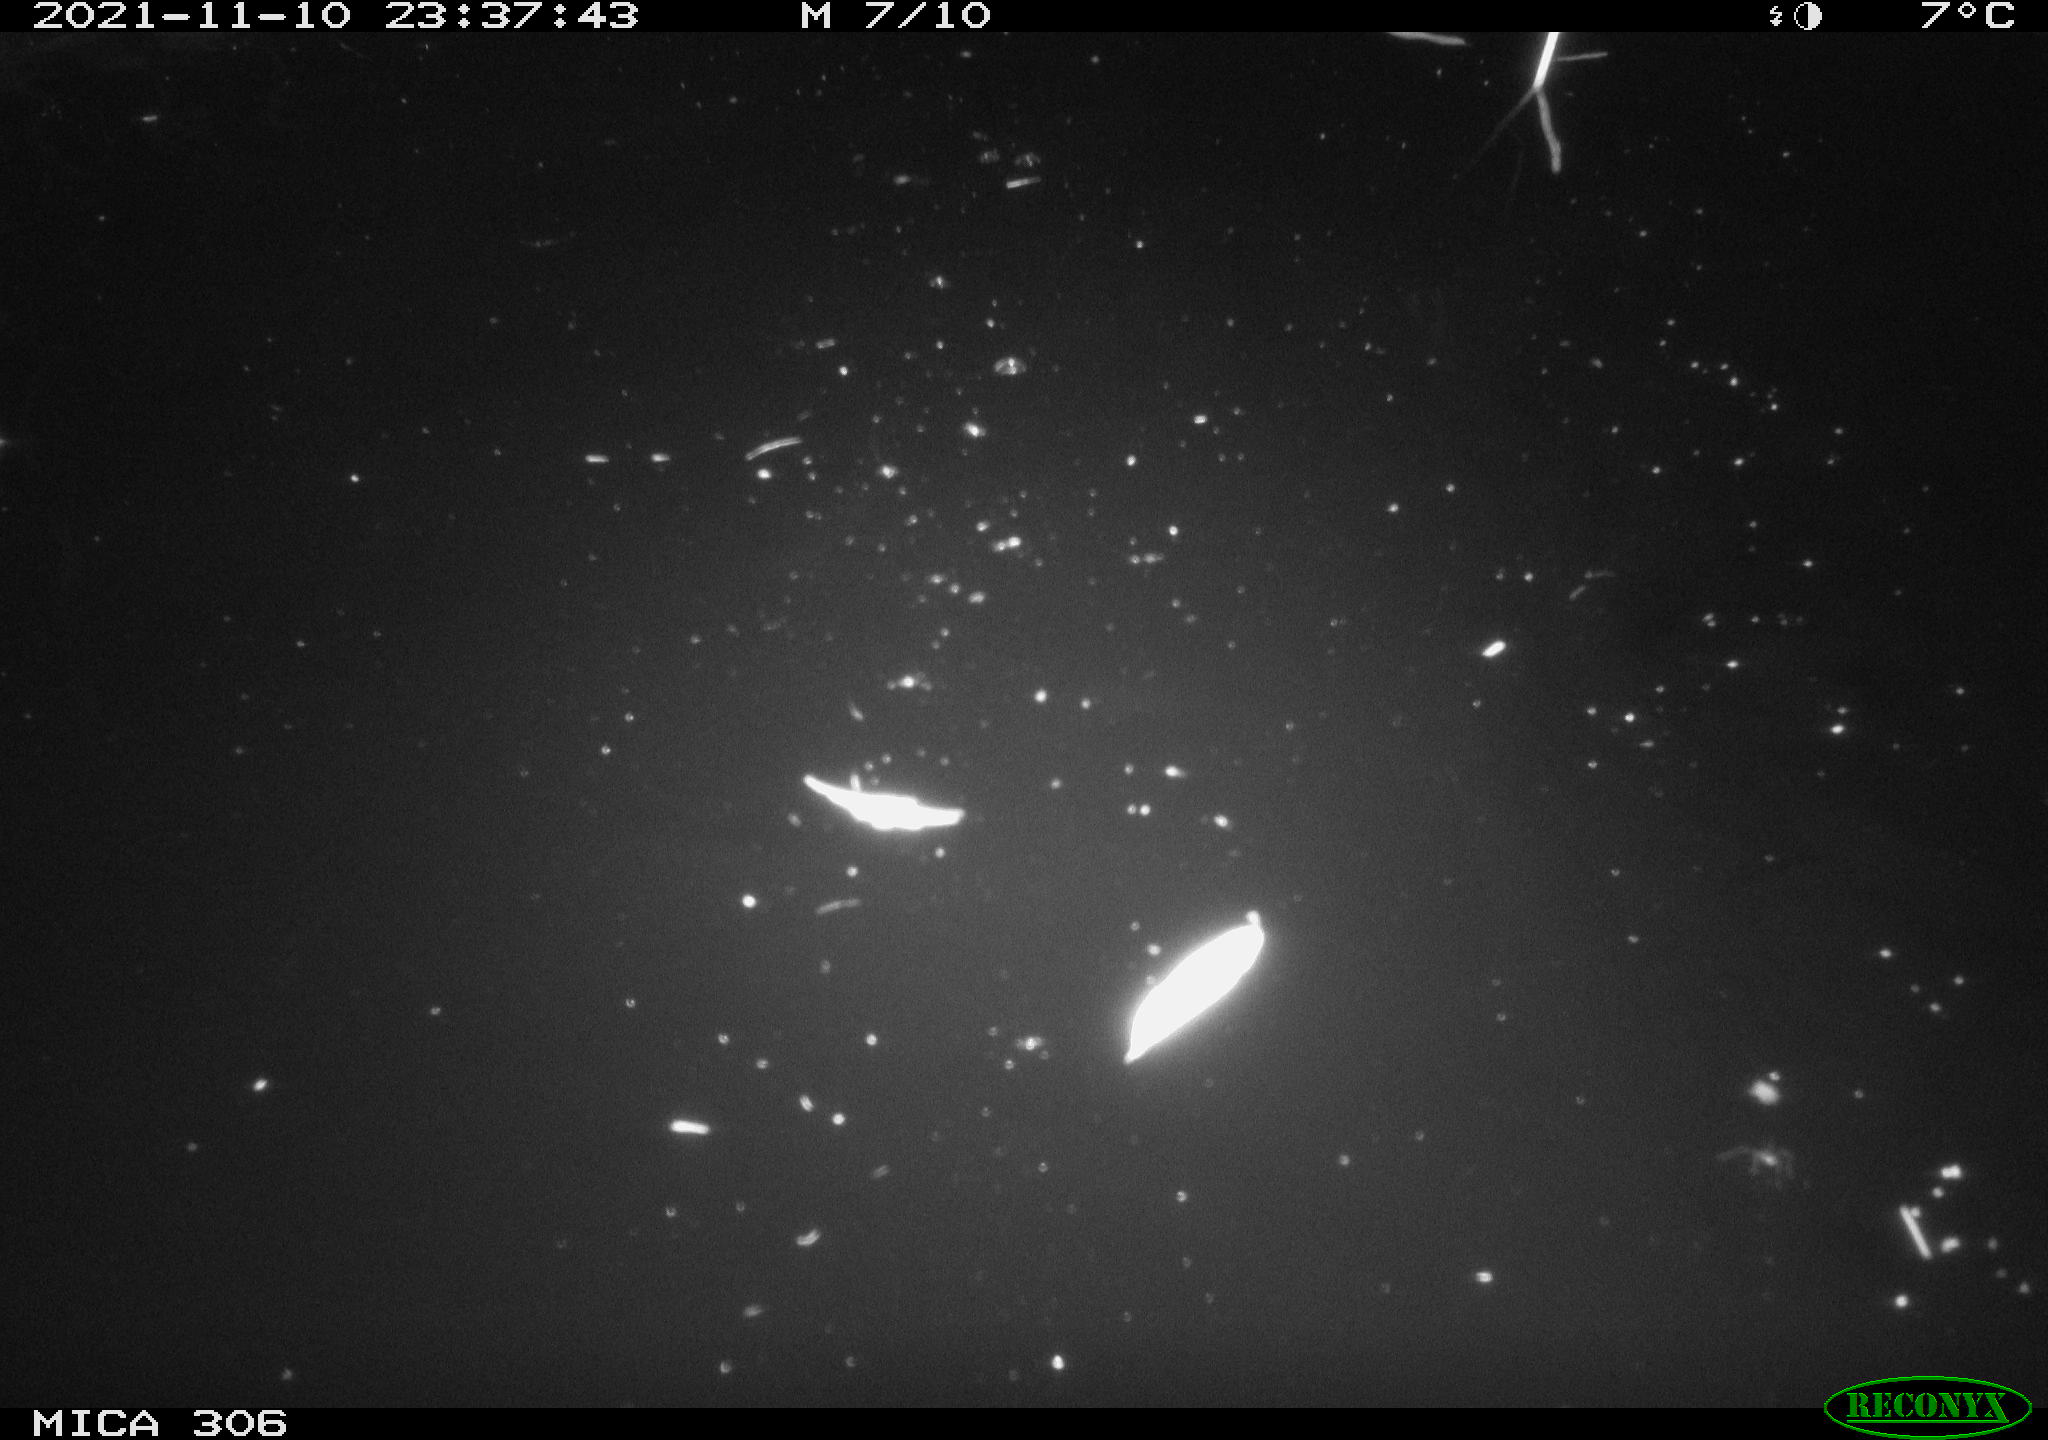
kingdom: Animalia
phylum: Chordata
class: Mammalia
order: Rodentia
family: Cricetidae
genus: Ondatra
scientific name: Ondatra zibethicus
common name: Muskrat
